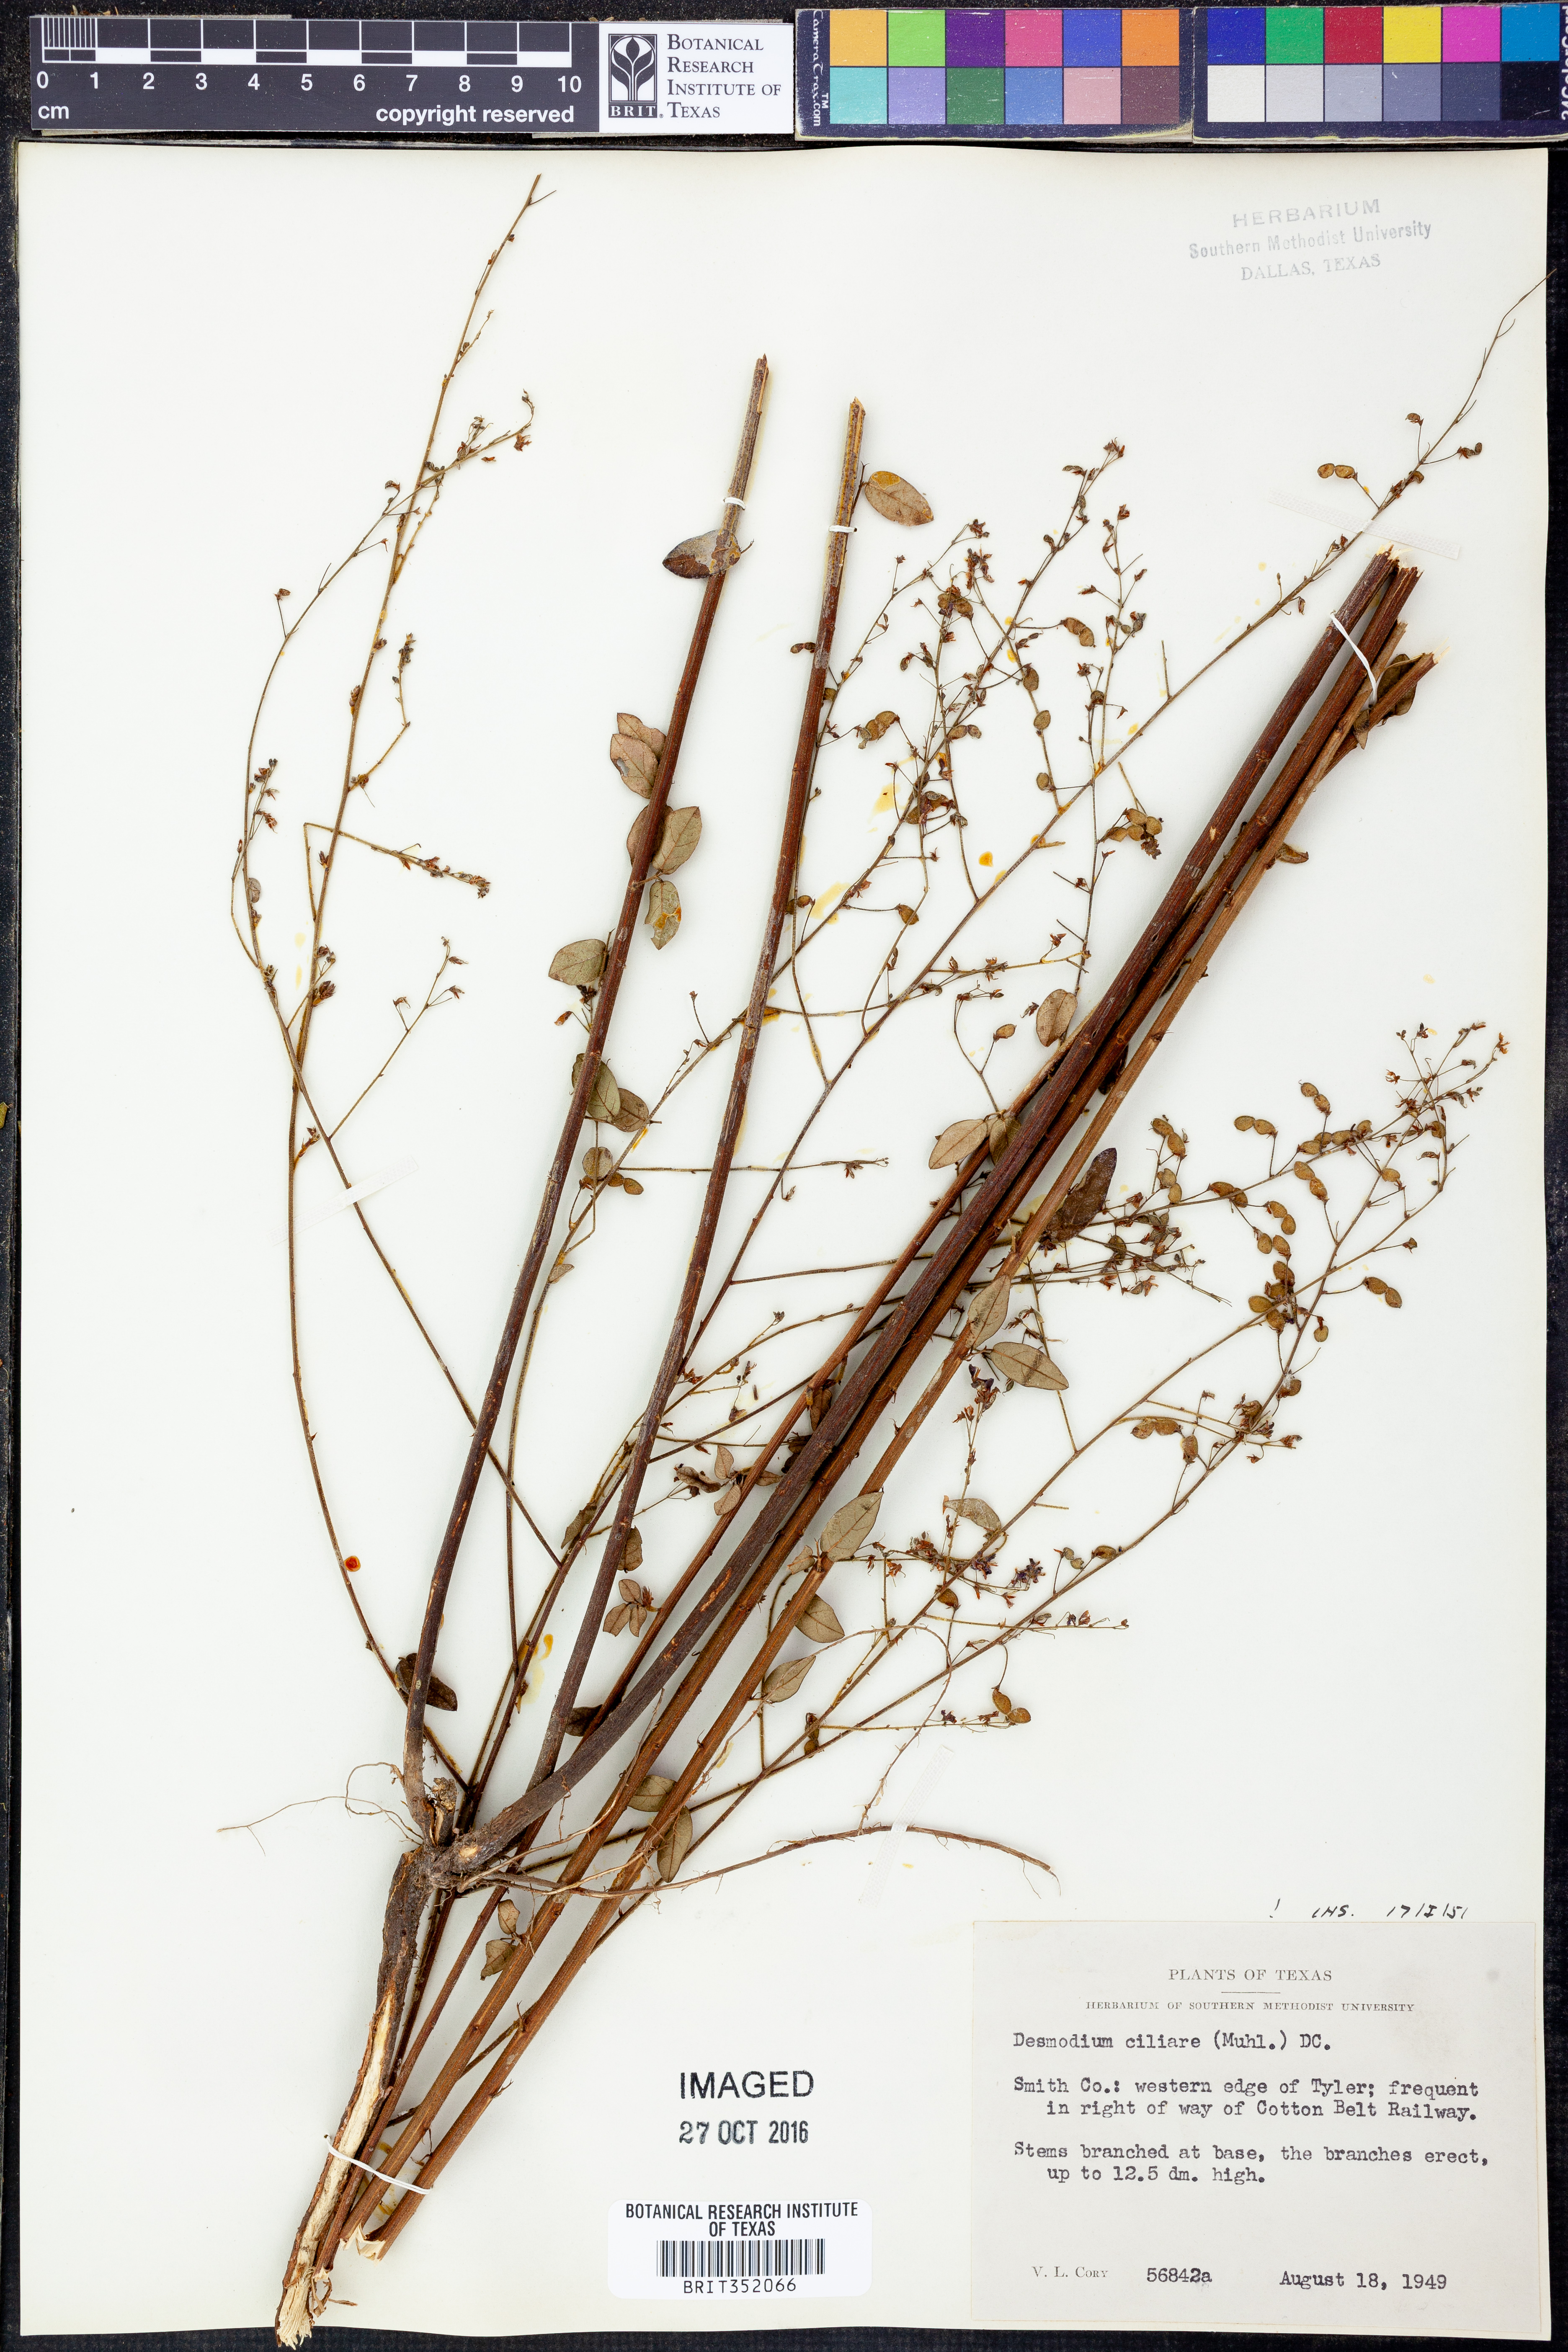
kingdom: Plantae
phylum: Tracheophyta
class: Magnoliopsida
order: Fabales
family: Fabaceae
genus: Desmodium
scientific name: Desmodium ciliare
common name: Hairy small-leaf ticktrefoil
